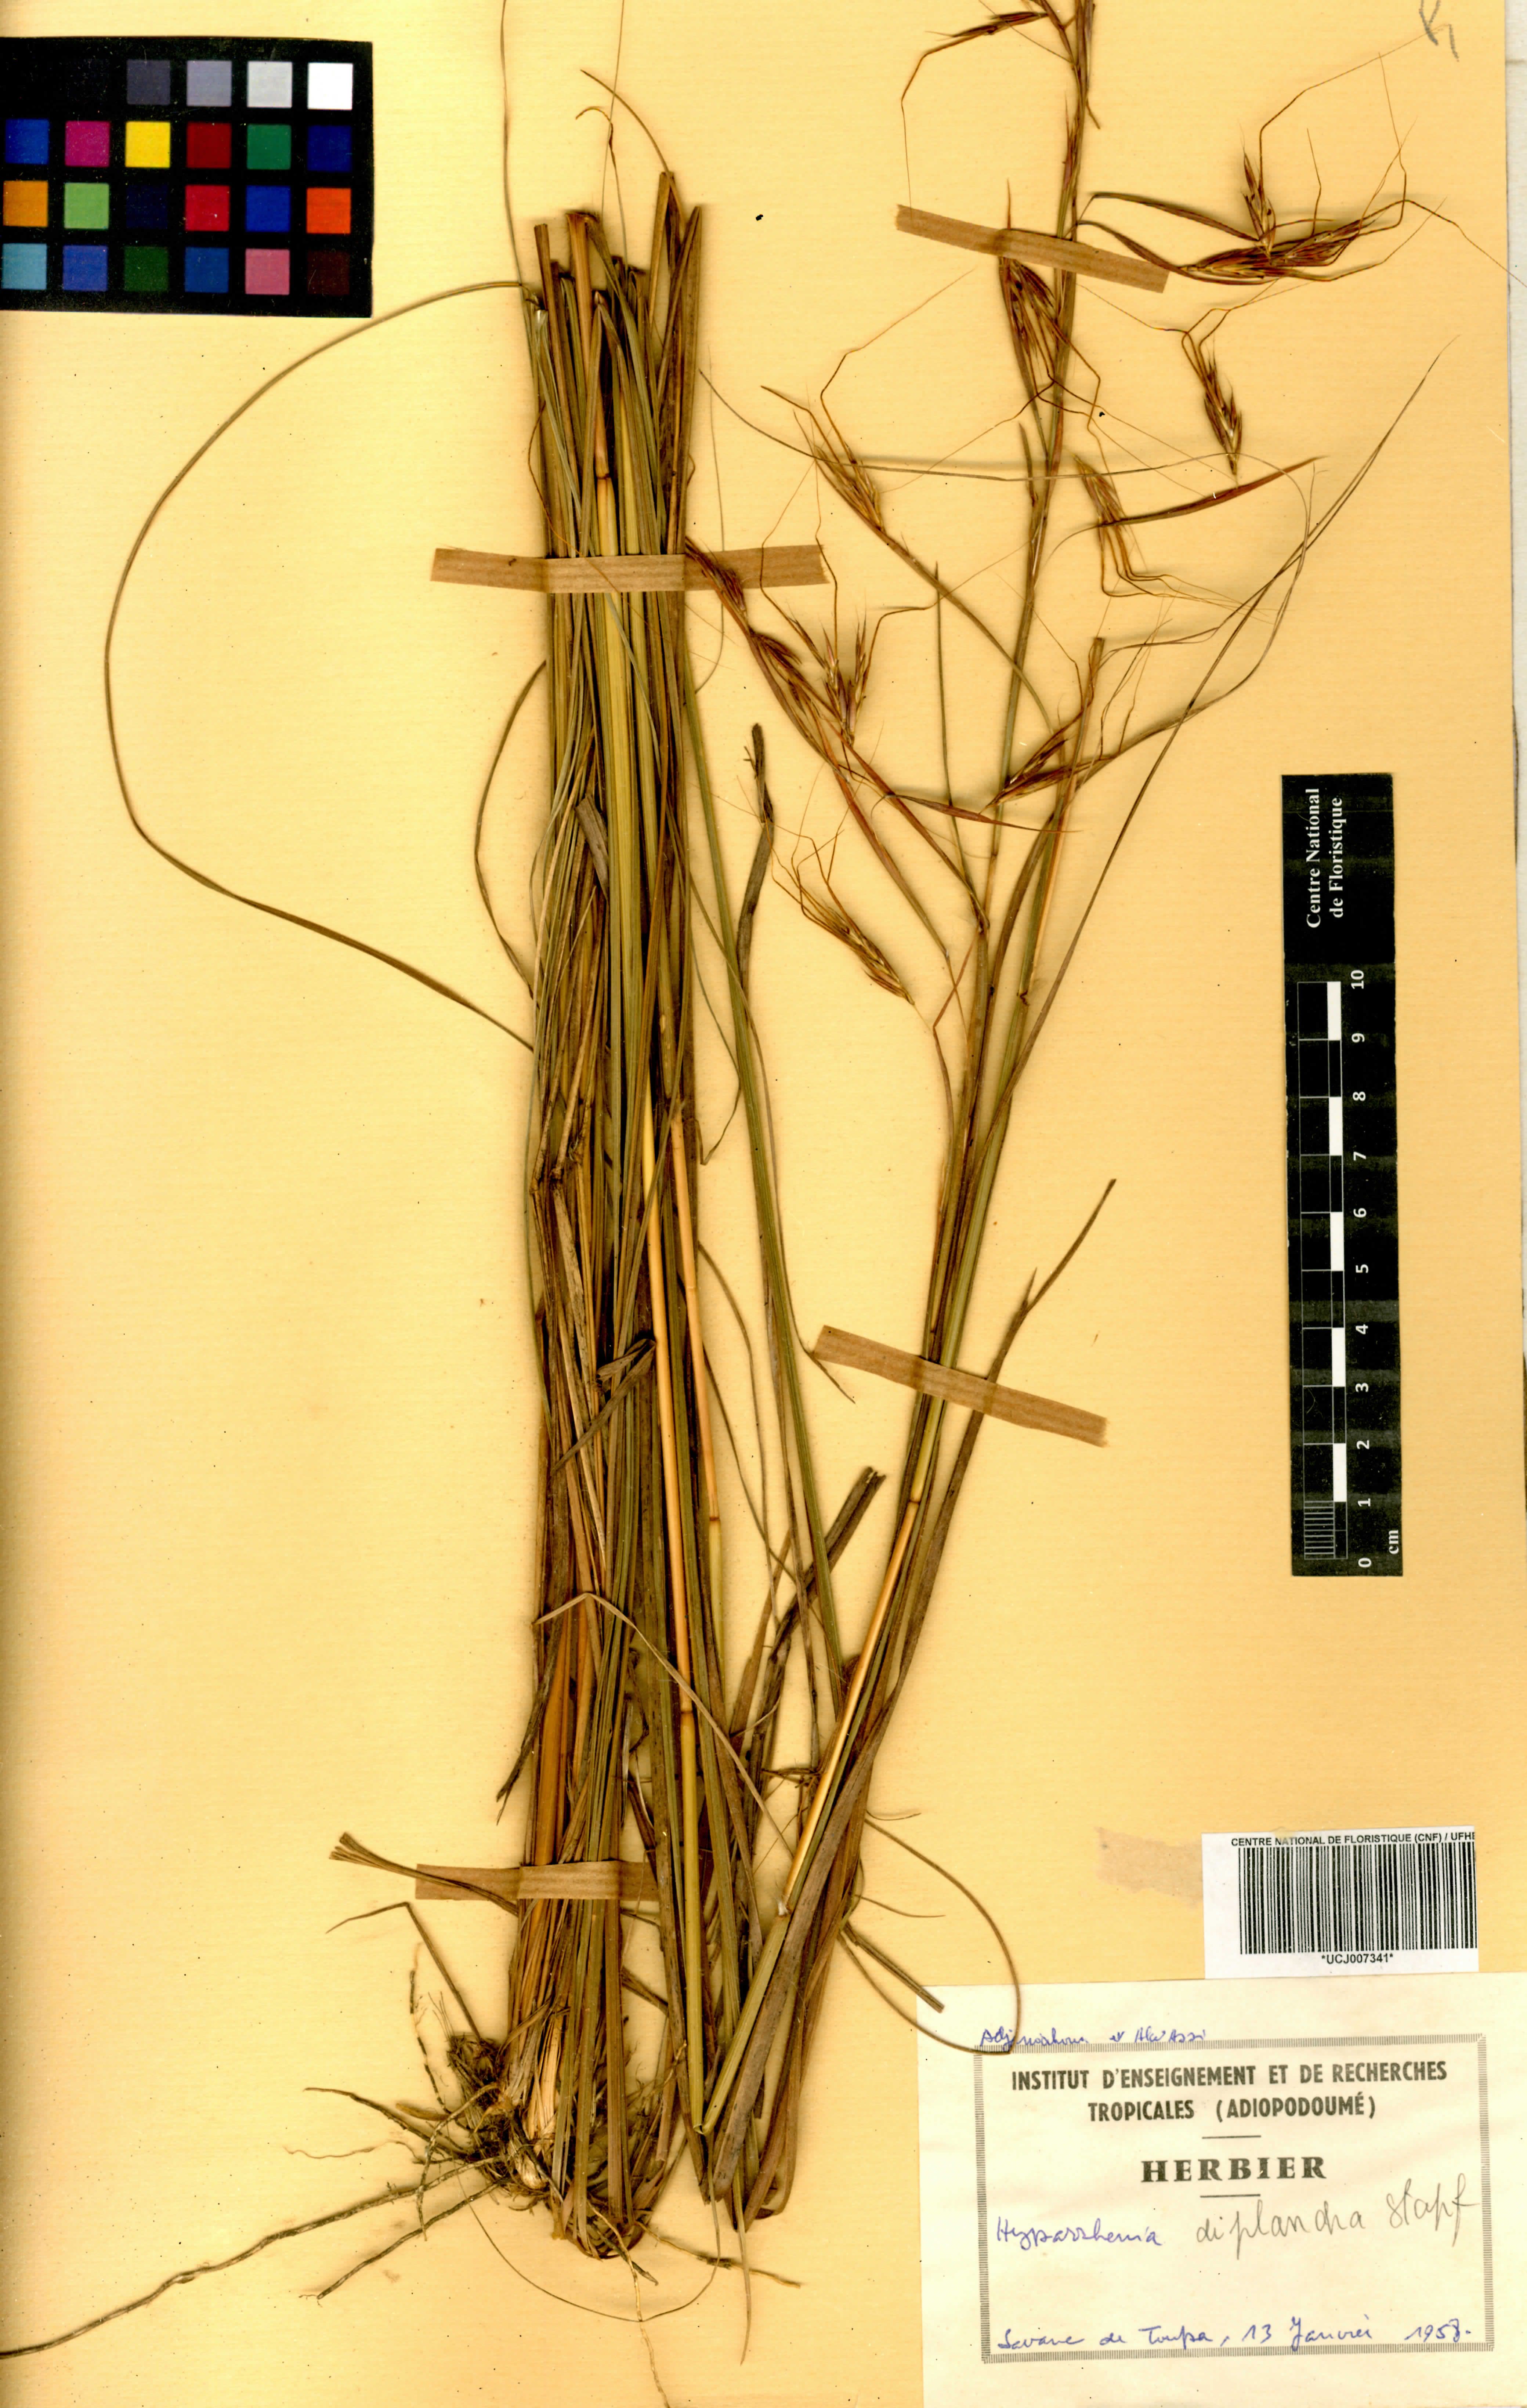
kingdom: Plantae
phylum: Tracheophyta
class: Liliopsida
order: Poales
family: Poaceae
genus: Hyparrhenia
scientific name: Hyparrhenia diplandra
